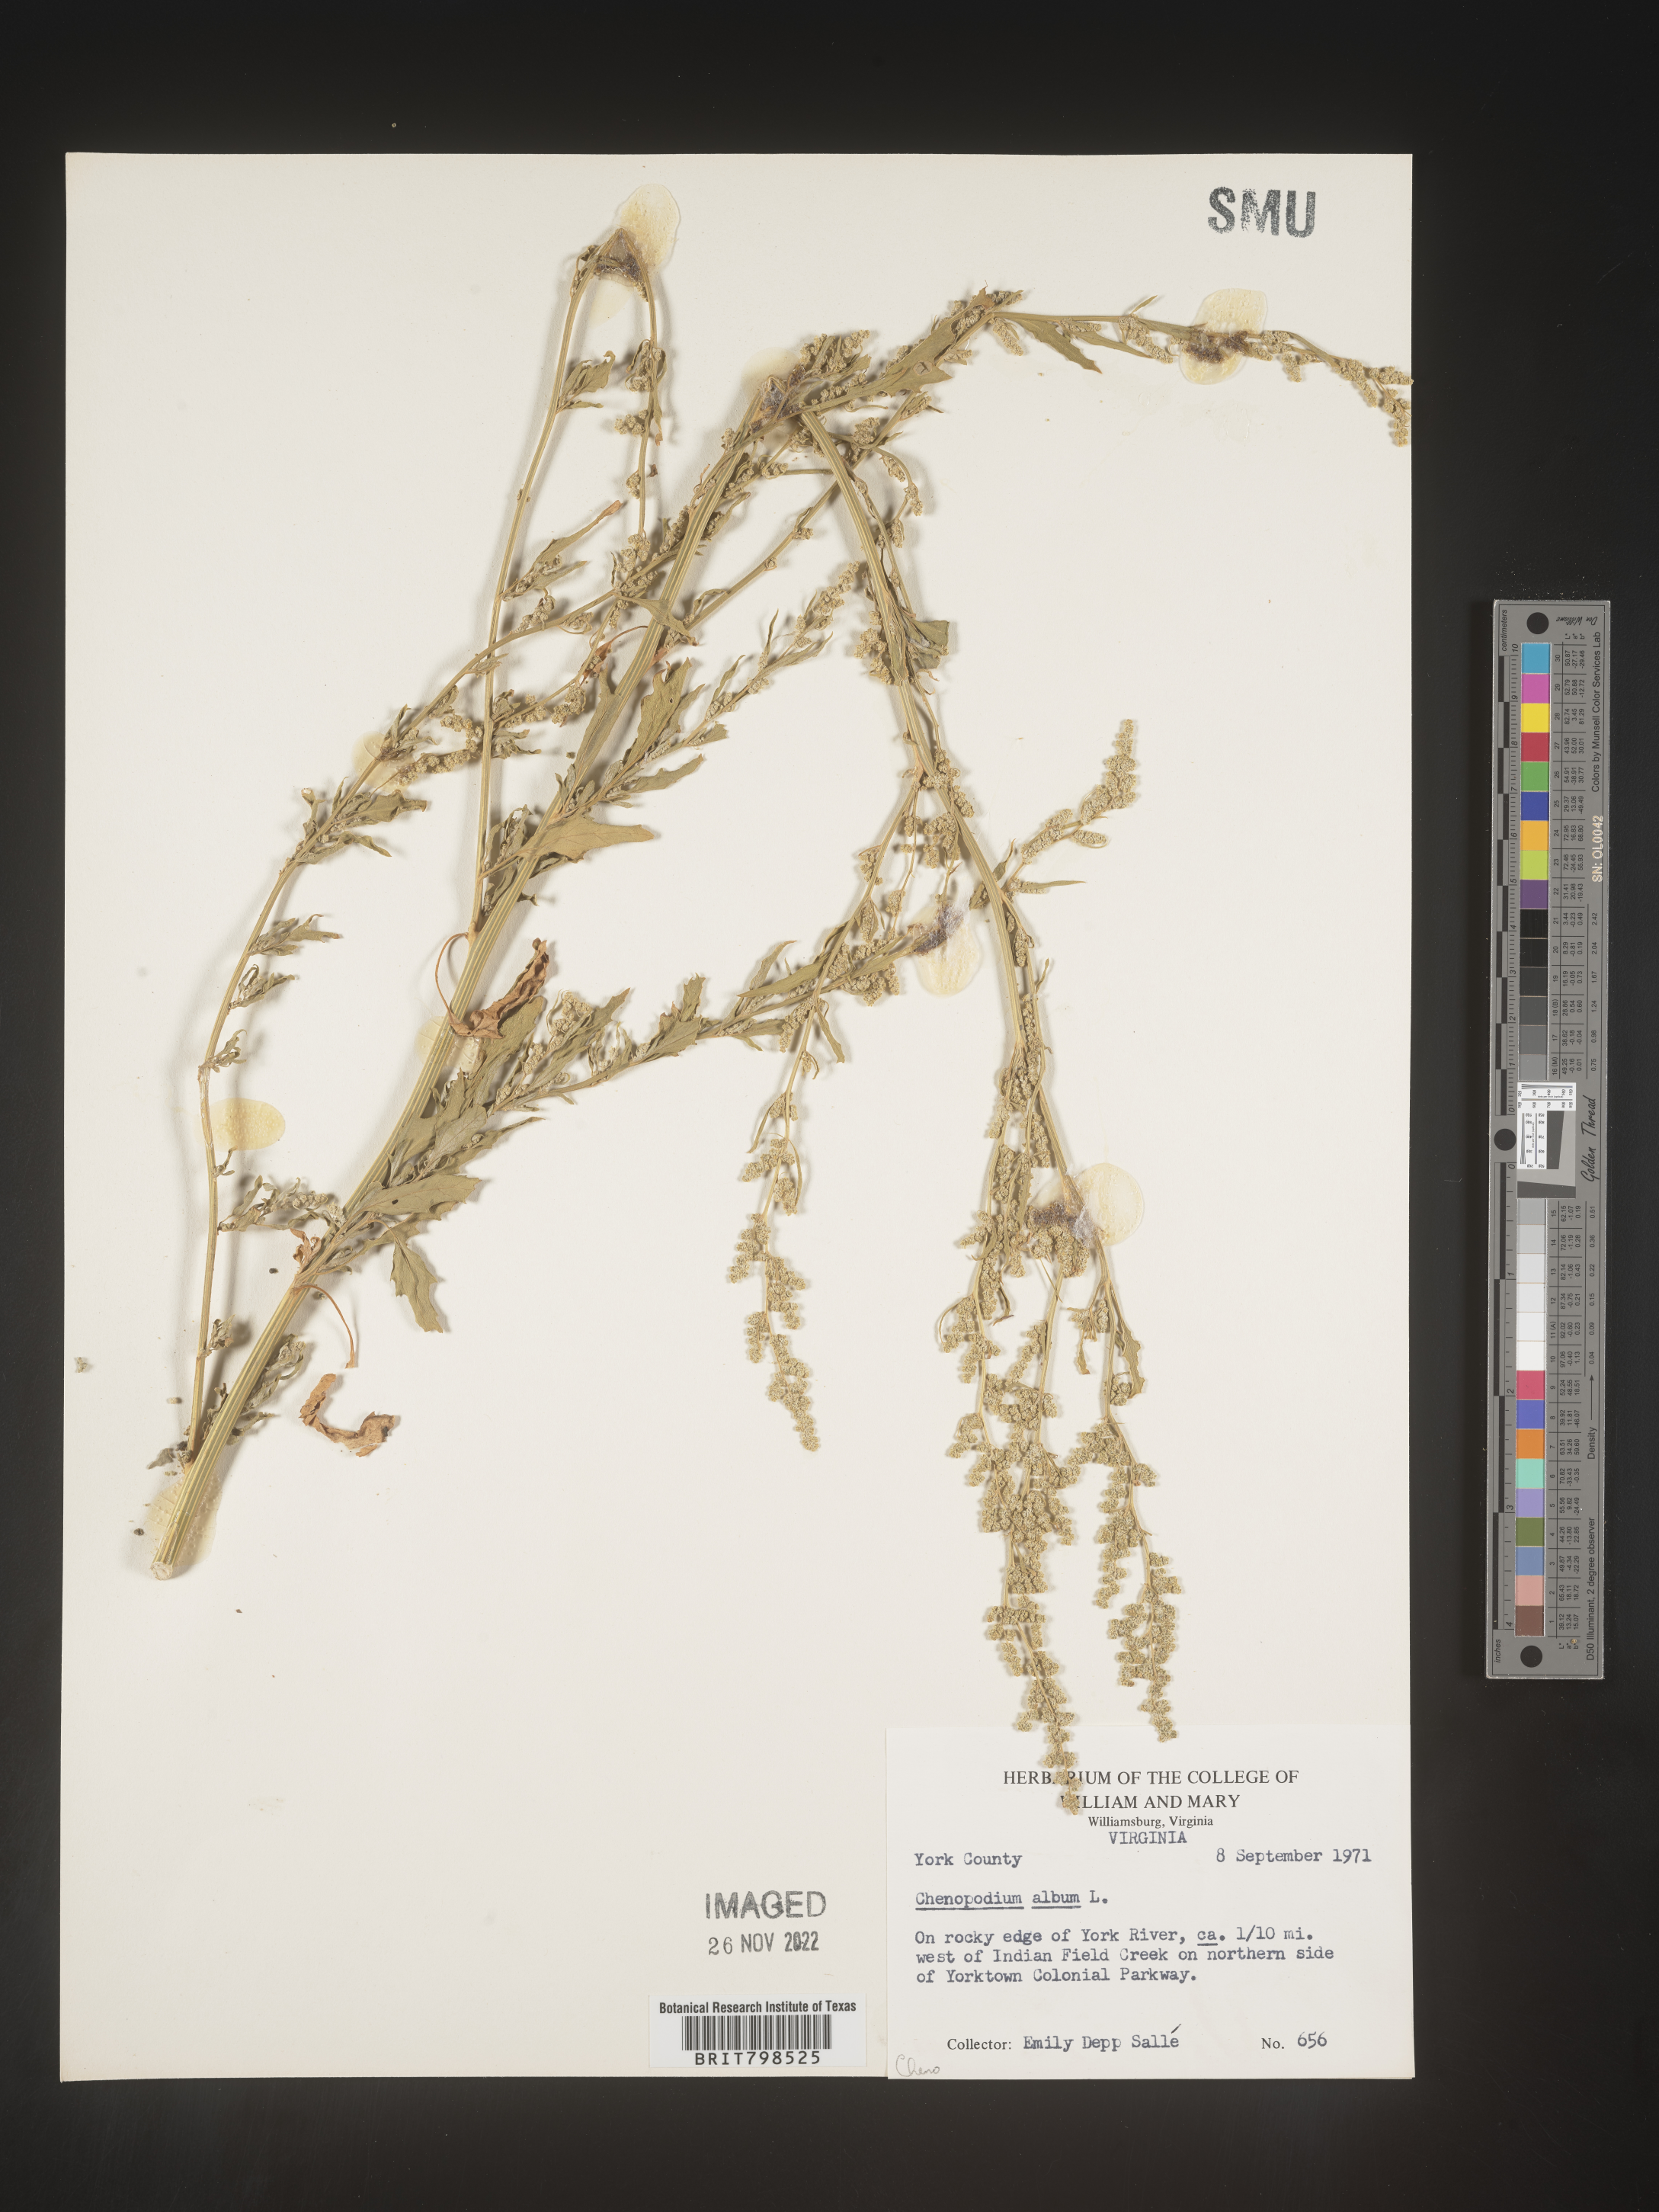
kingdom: Plantae
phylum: Tracheophyta
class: Magnoliopsida
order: Caryophyllales
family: Amaranthaceae
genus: Chenopodium
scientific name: Chenopodium album
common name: Fat-hen
